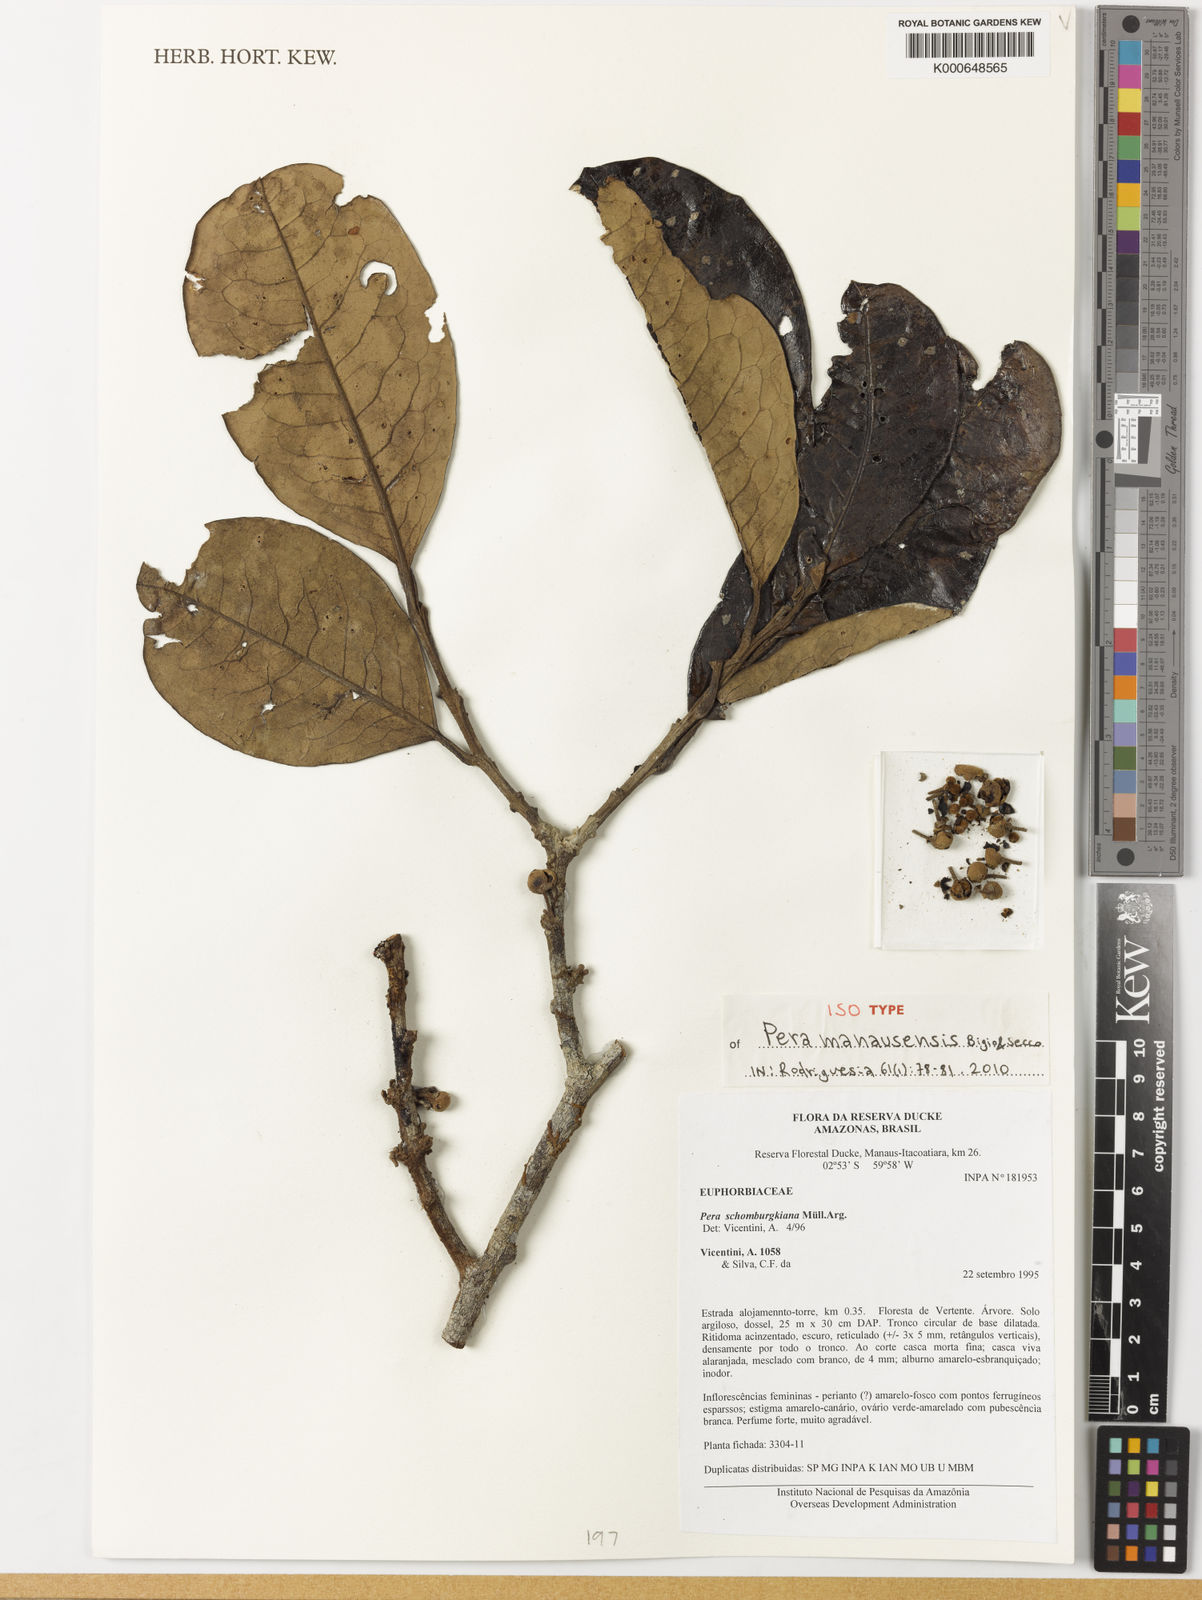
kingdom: Plantae
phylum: Tracheophyta
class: Magnoliopsida
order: Malpighiales
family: Peraceae
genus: Pera
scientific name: Pera manausensis
